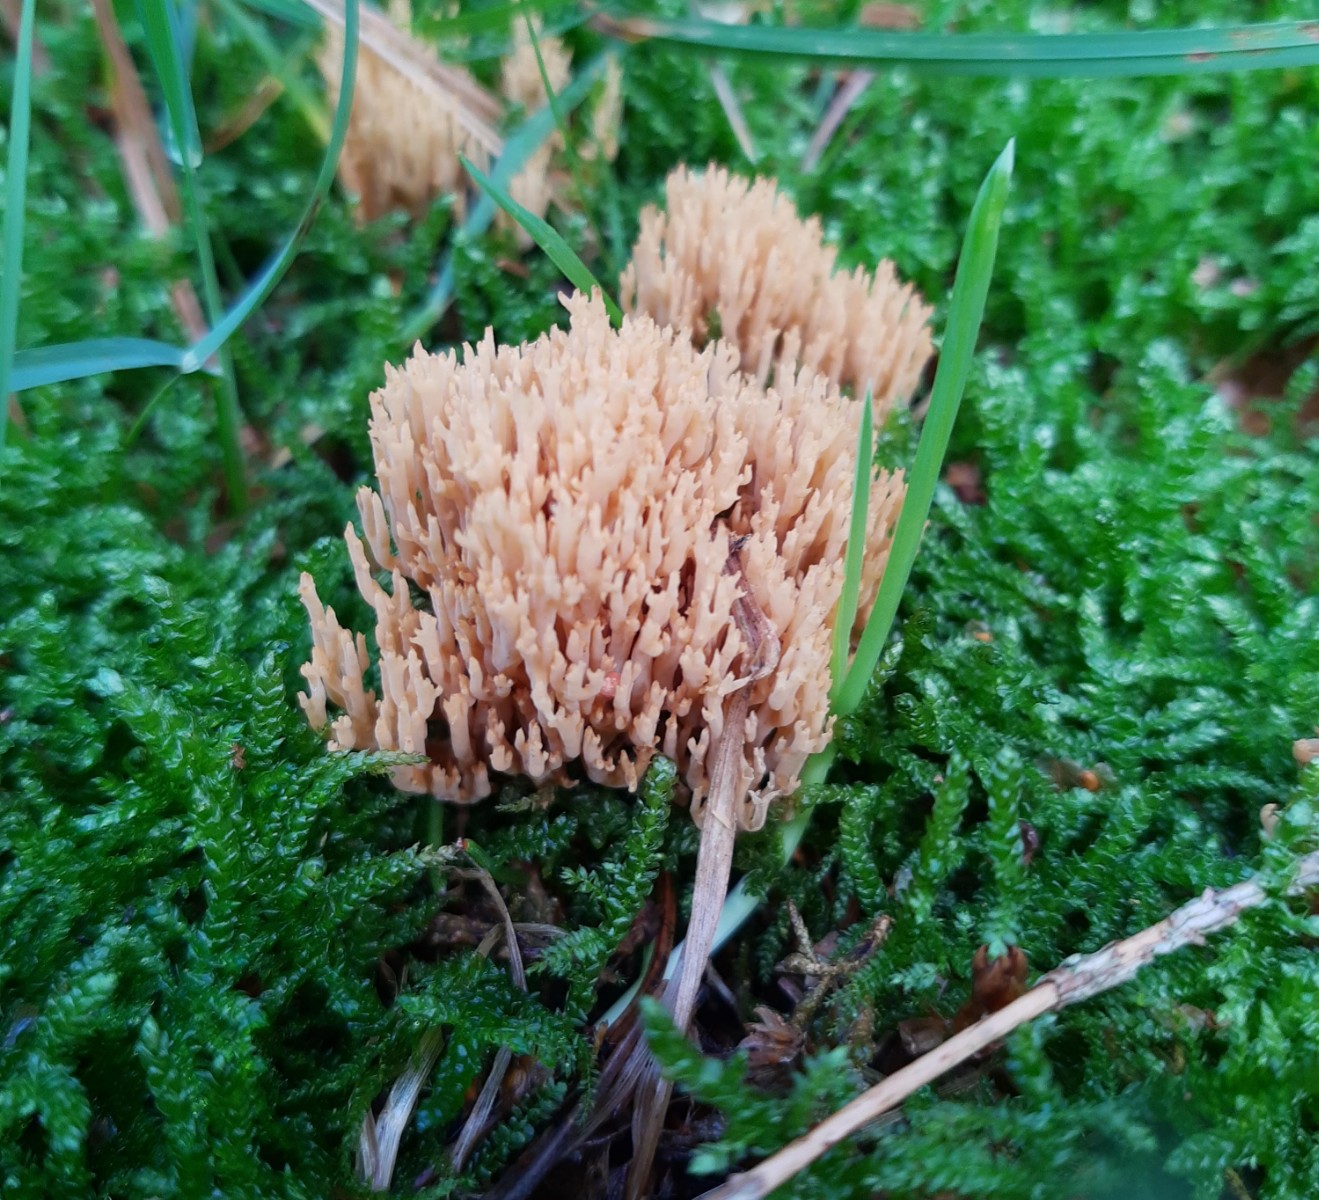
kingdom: Fungi
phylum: Basidiomycota
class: Agaricomycetes
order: Gomphales
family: Gomphaceae
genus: Phaeoclavulina
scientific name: Phaeoclavulina eumorpha
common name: gran-koralsvamp
